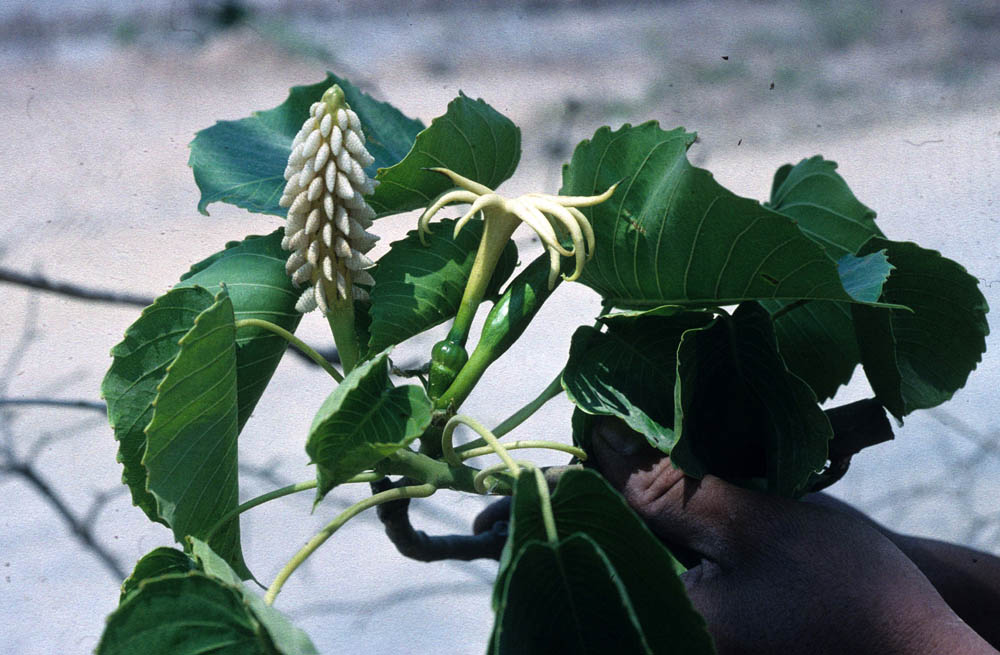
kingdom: Plantae
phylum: Tracheophyta
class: Magnoliopsida
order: Malpighiales
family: Euphorbiaceae
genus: Hura
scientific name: Hura
